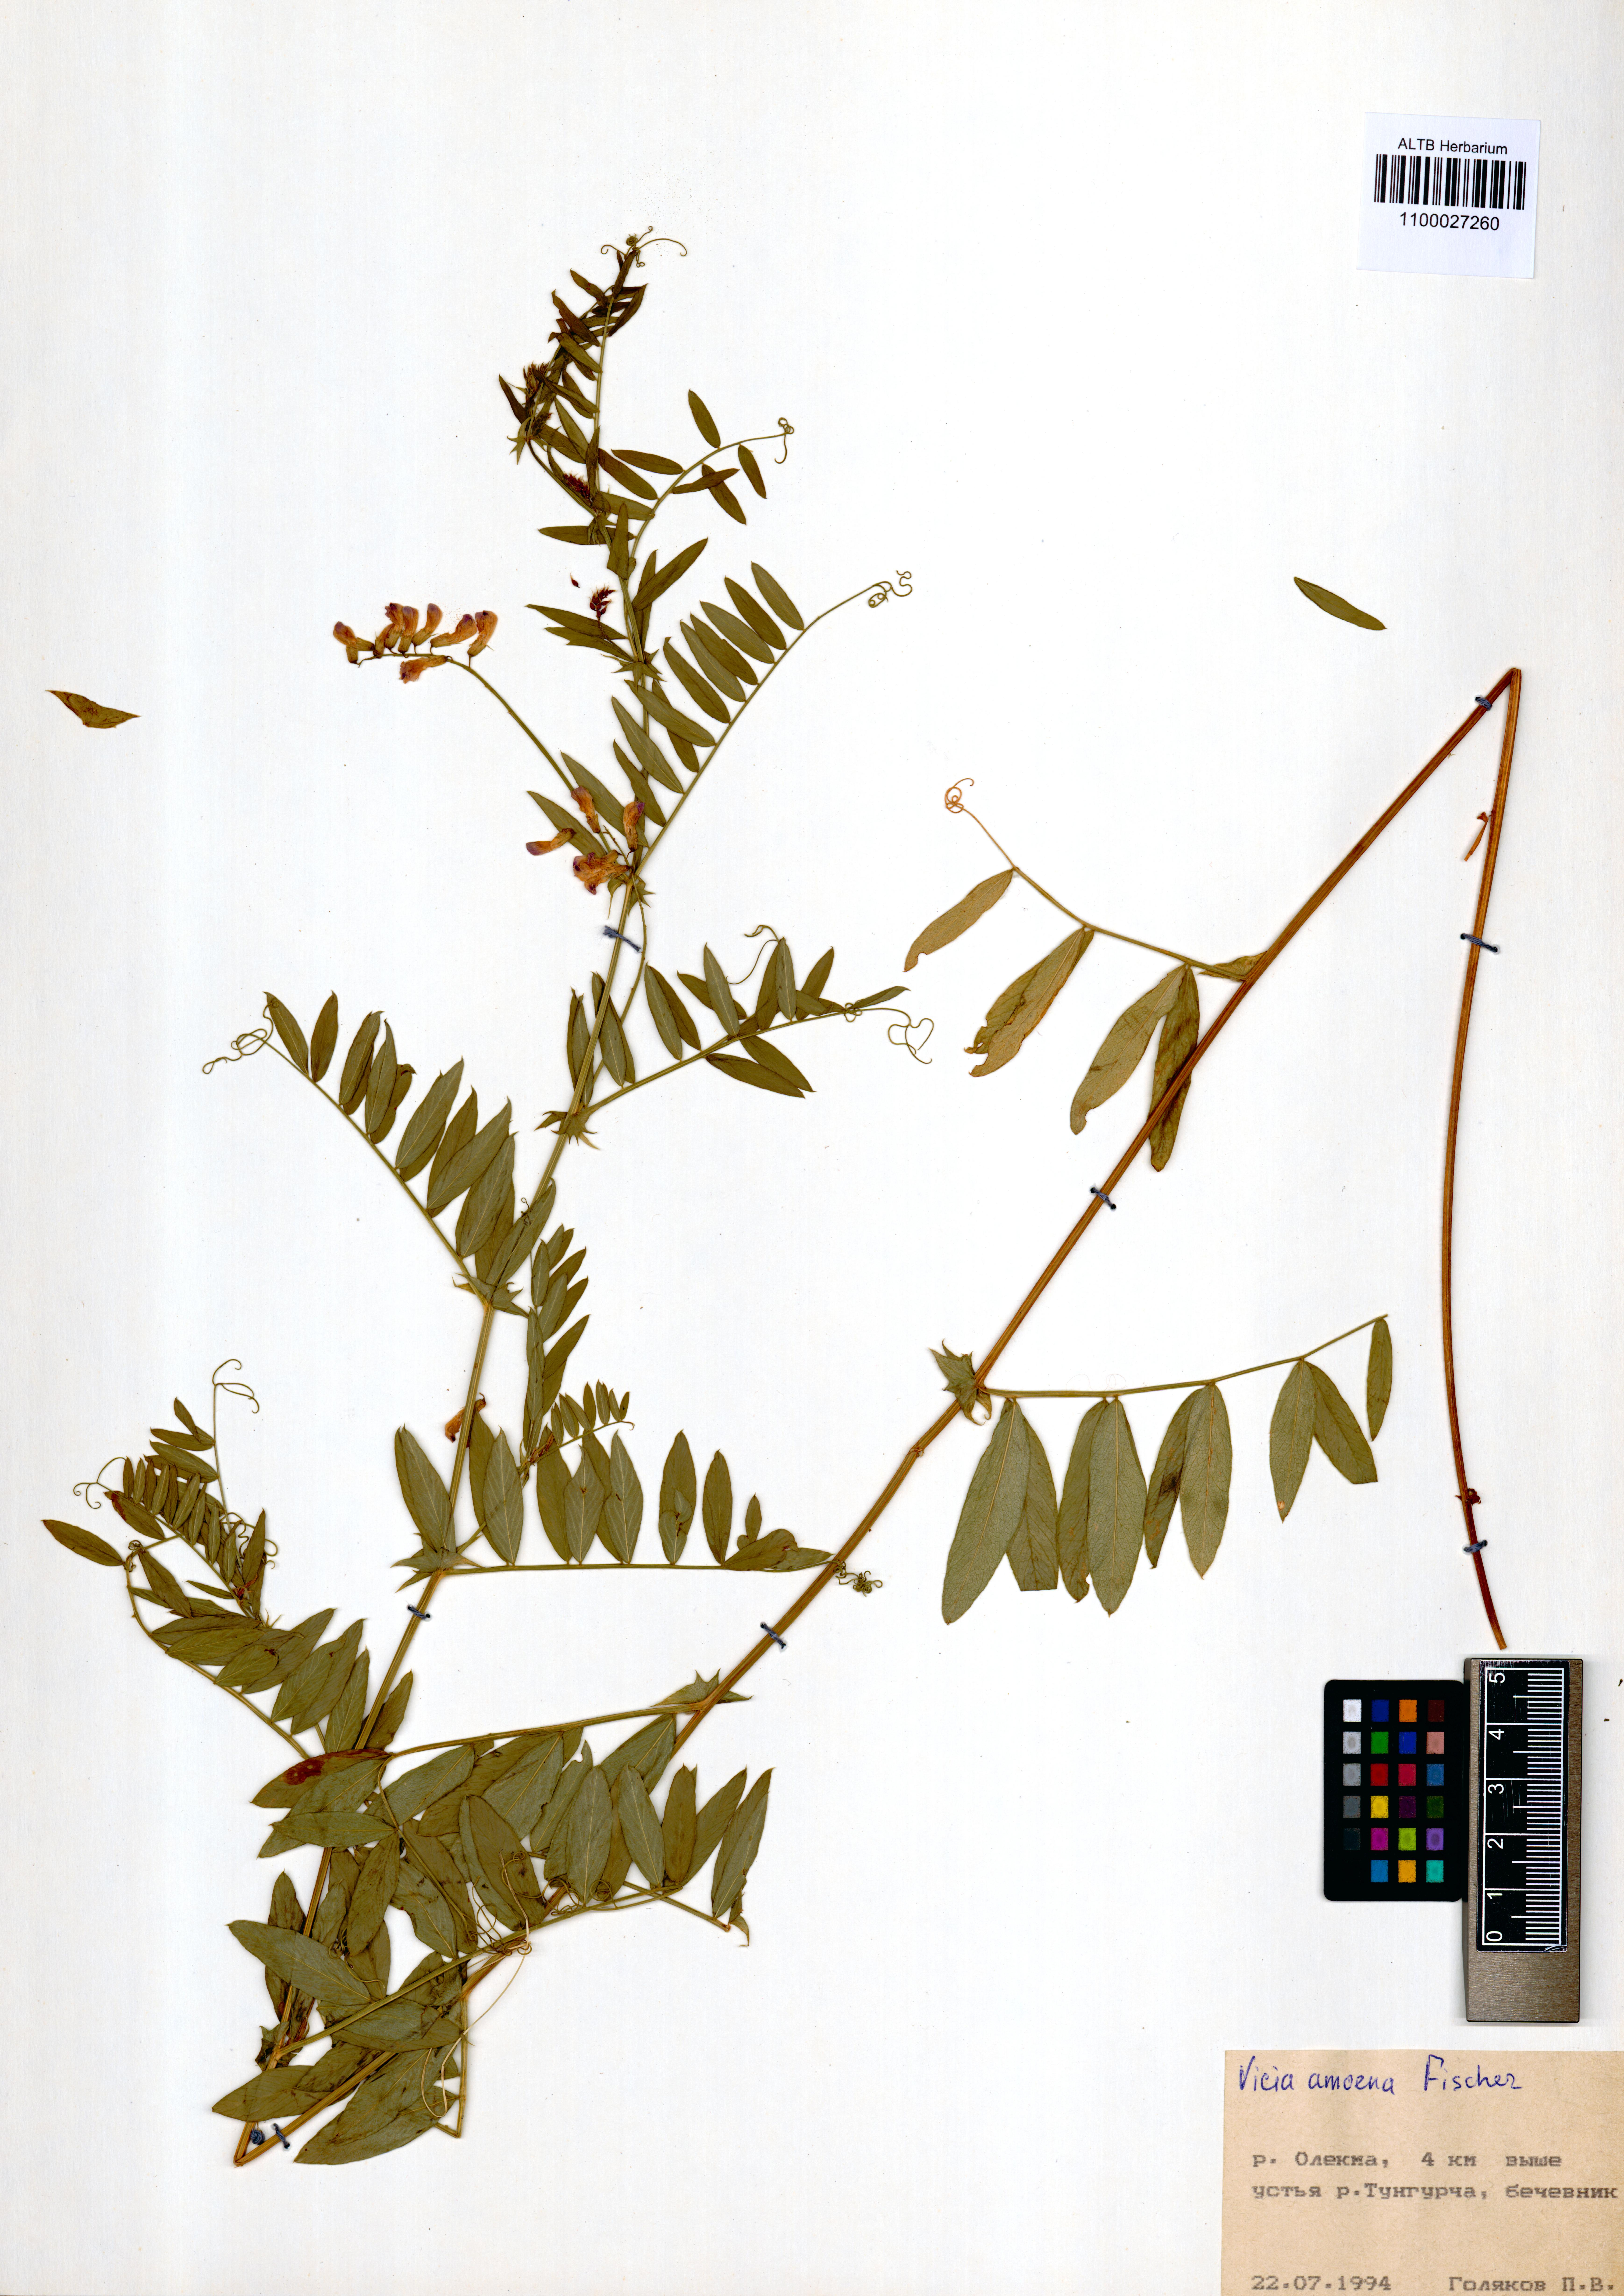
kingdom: Plantae
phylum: Tracheophyta
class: Magnoliopsida
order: Fabales
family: Fabaceae
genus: Vicia
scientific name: Vicia amoena
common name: Cheder ebs
